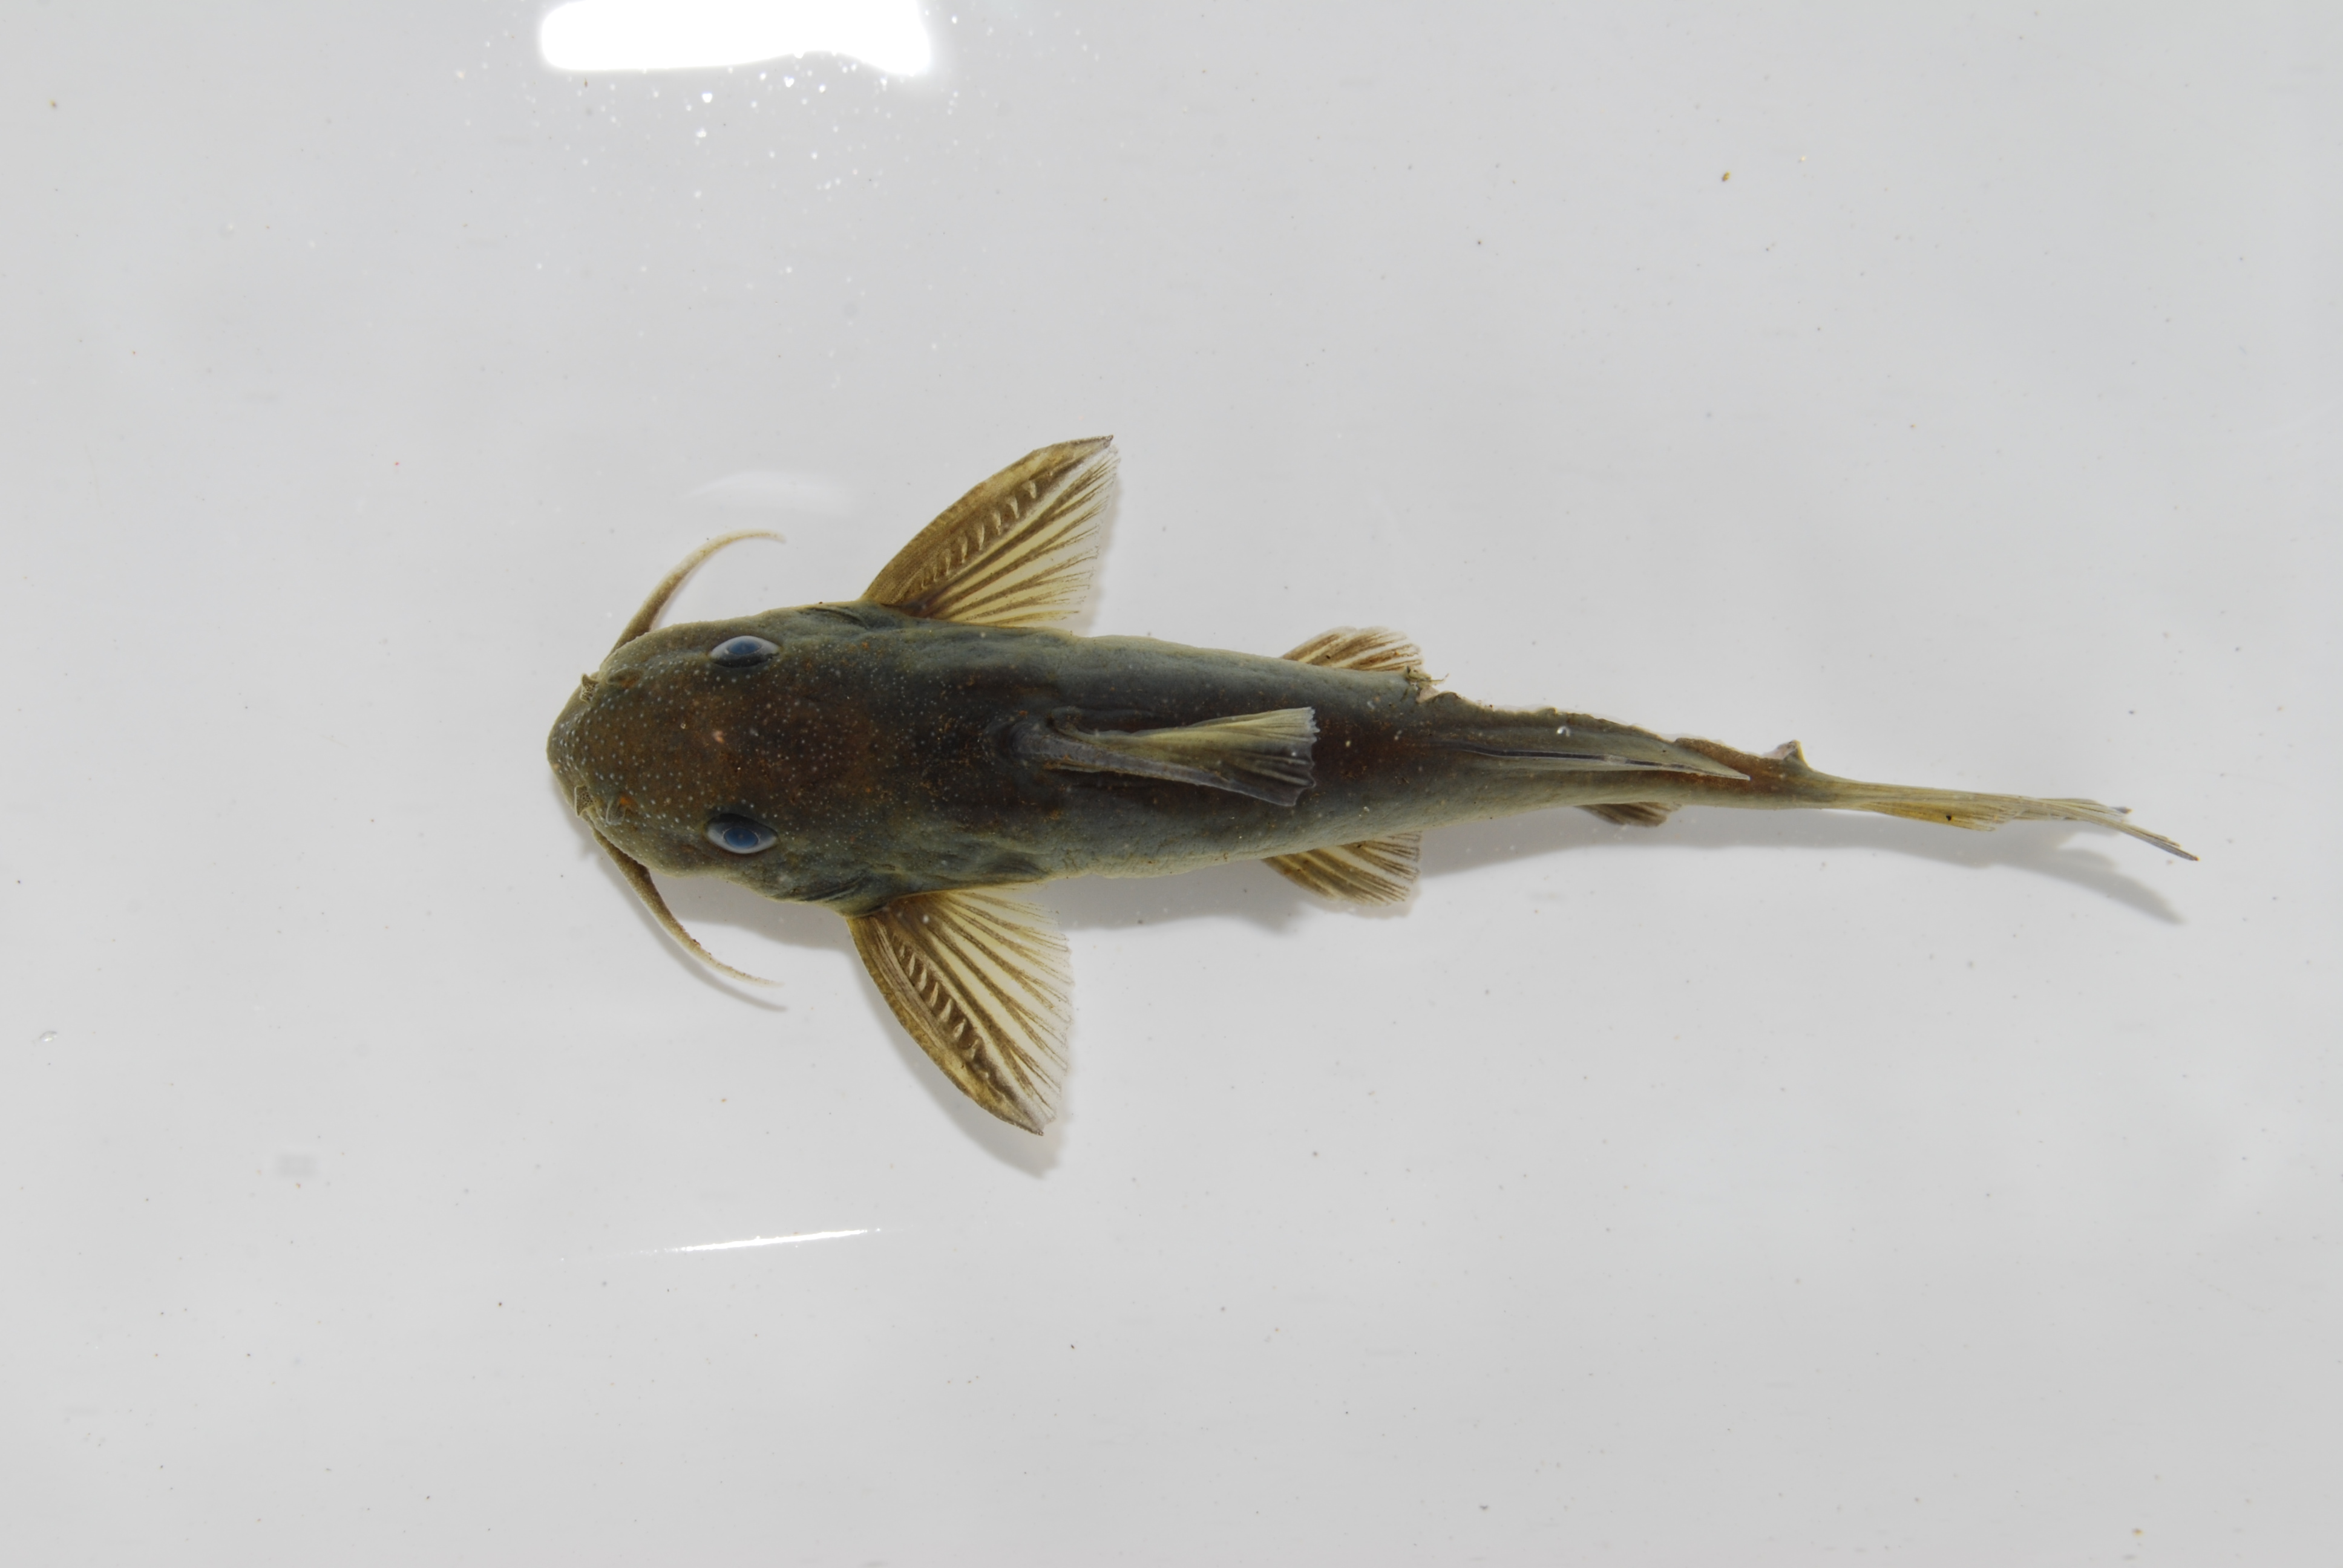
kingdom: Animalia
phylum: Chordata
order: Siluriformes
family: Mochokidae
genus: Synodontis
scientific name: Synodontis
